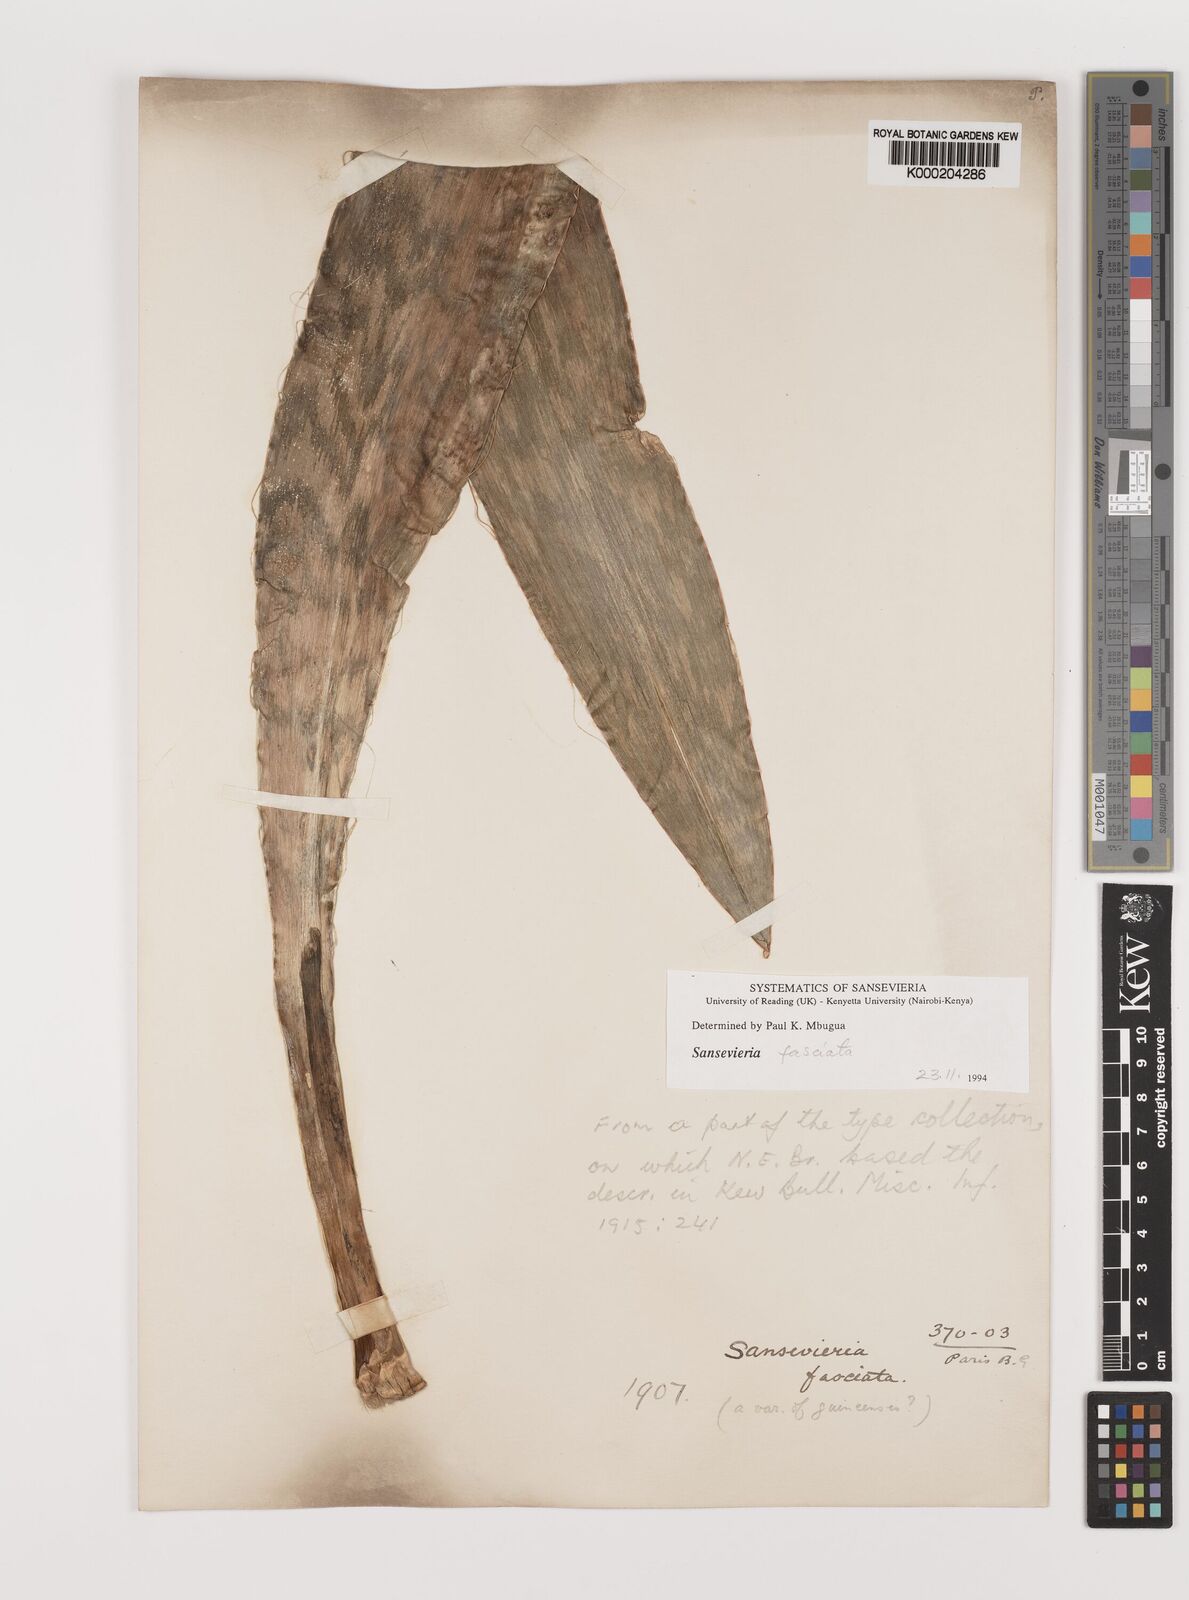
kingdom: Plantae
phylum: Tracheophyta
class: Liliopsida
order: Asparagales
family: Asparagaceae
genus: Dracaena
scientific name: Dracaena
